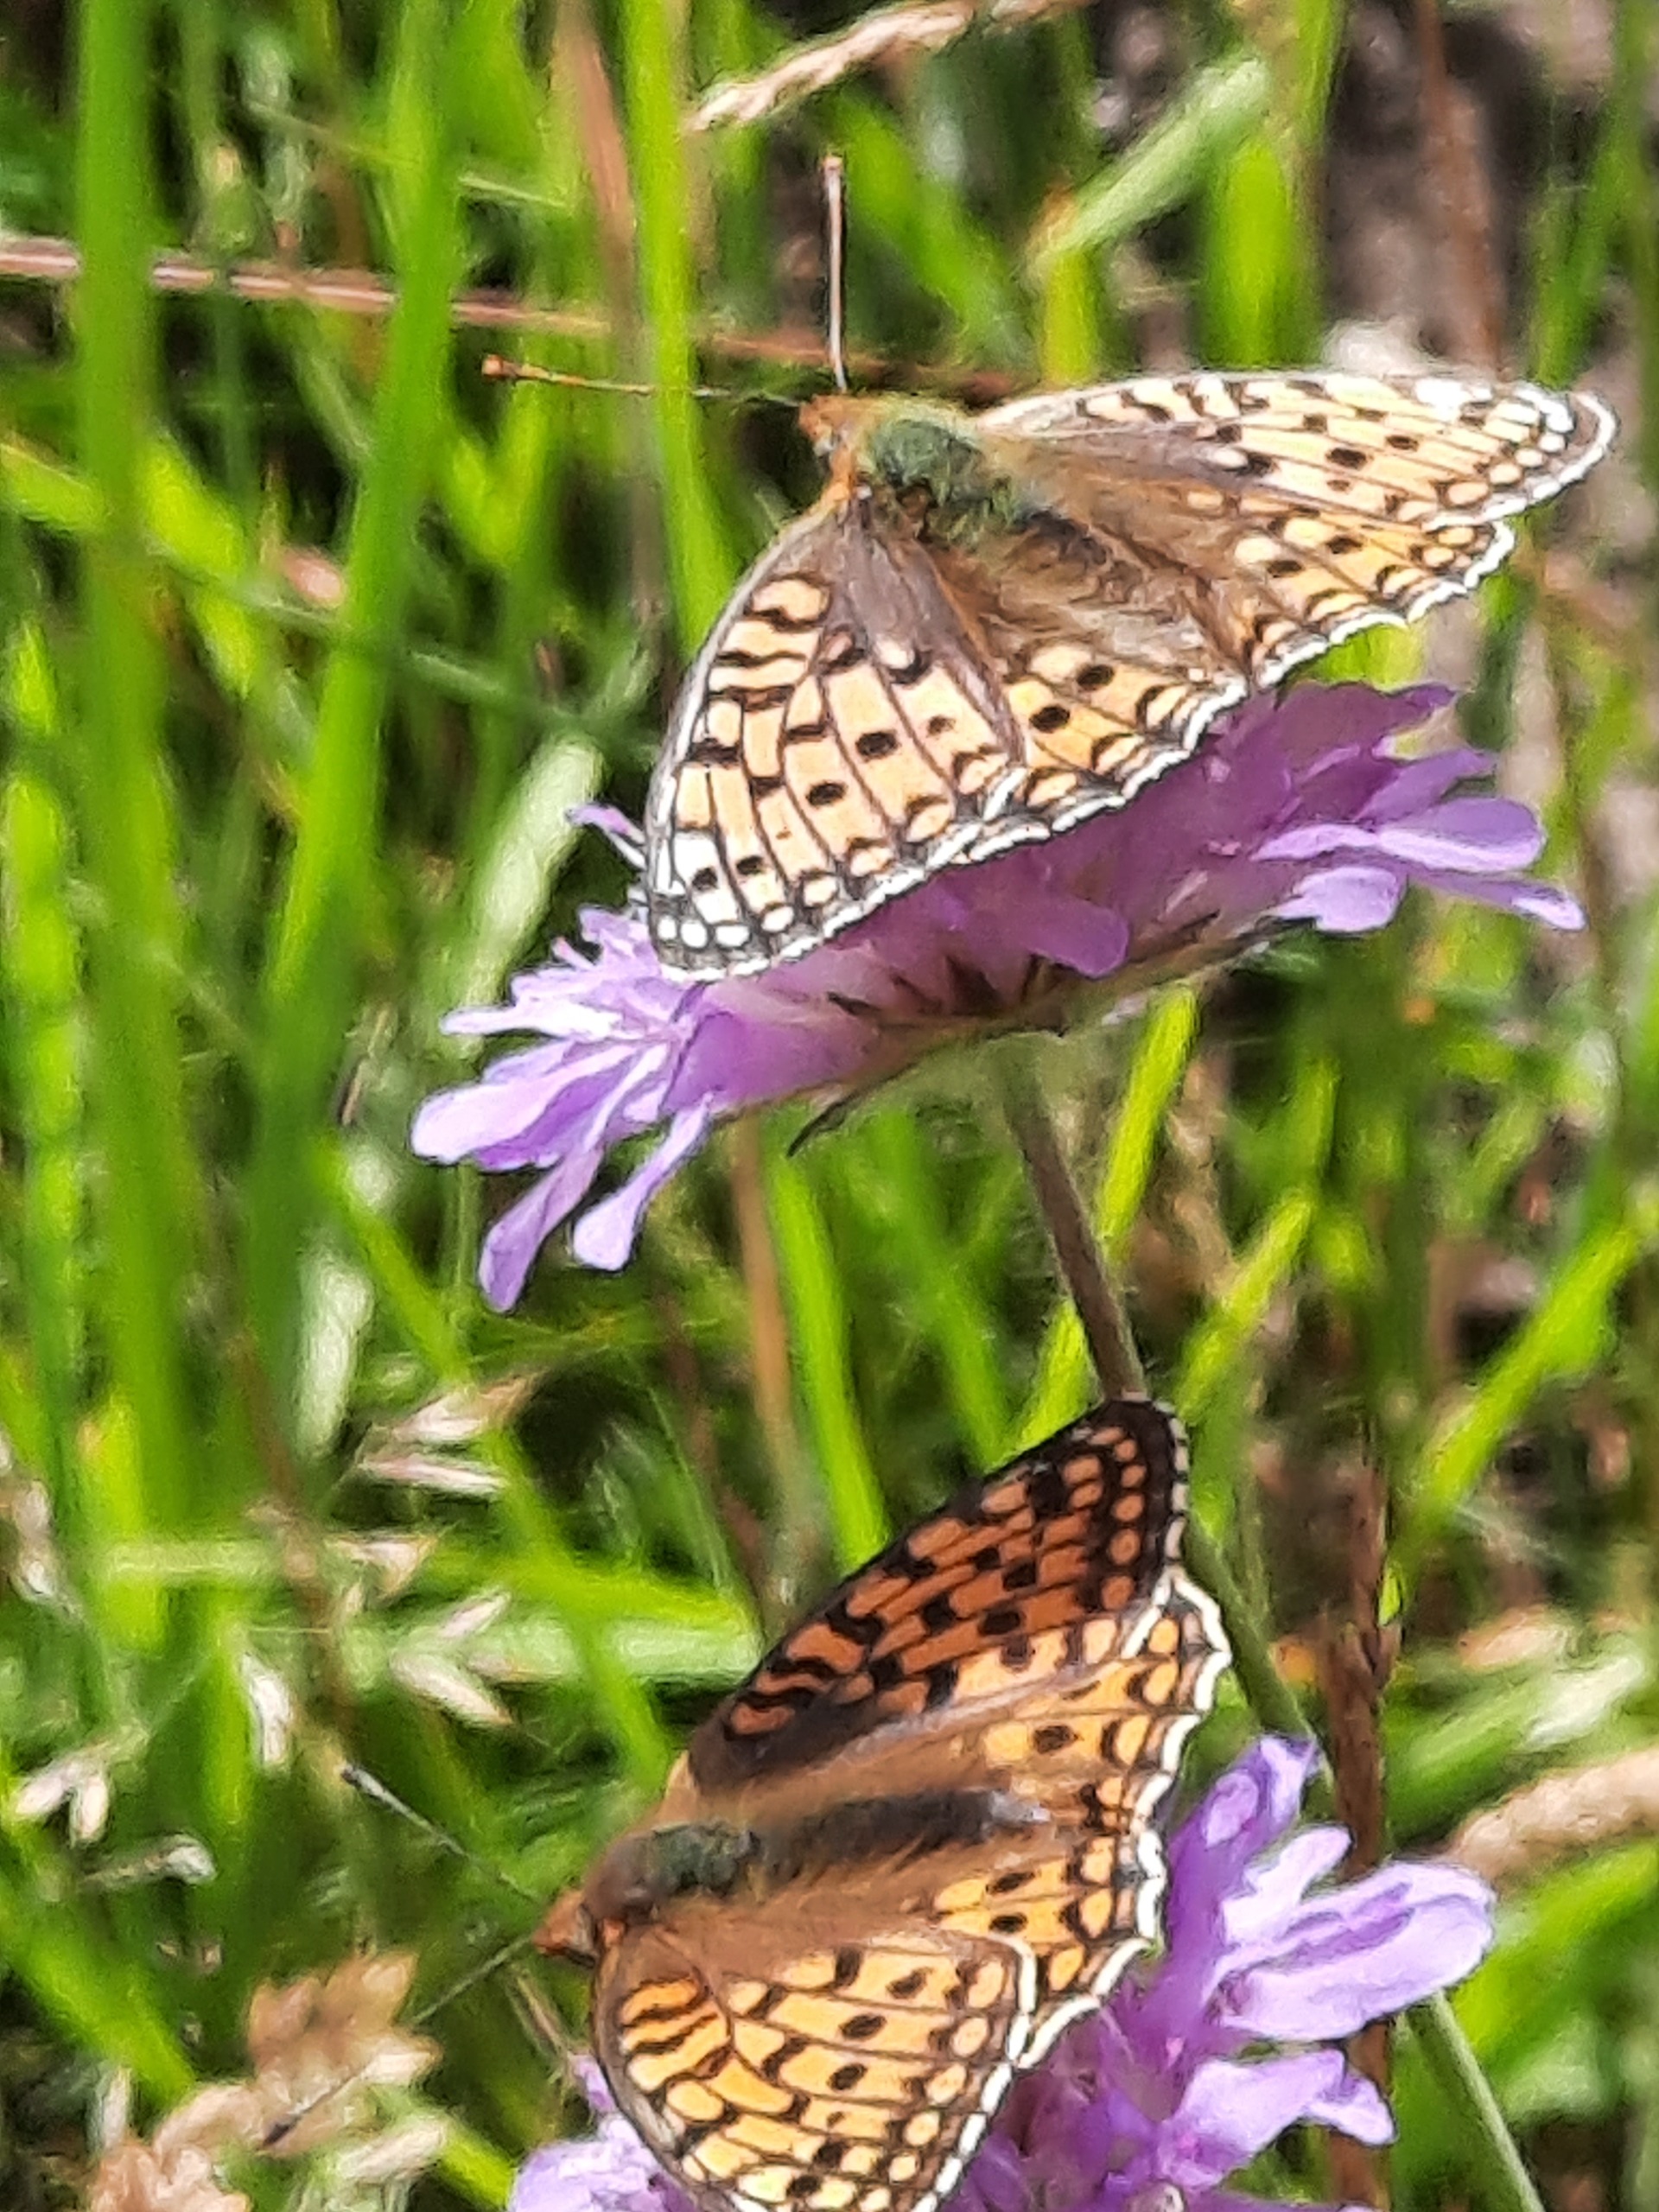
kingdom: Animalia
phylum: Arthropoda
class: Insecta
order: Lepidoptera
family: Nymphalidae
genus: Fabriciana
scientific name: Fabriciana niobe
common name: Klitperlemorsommerfugl
